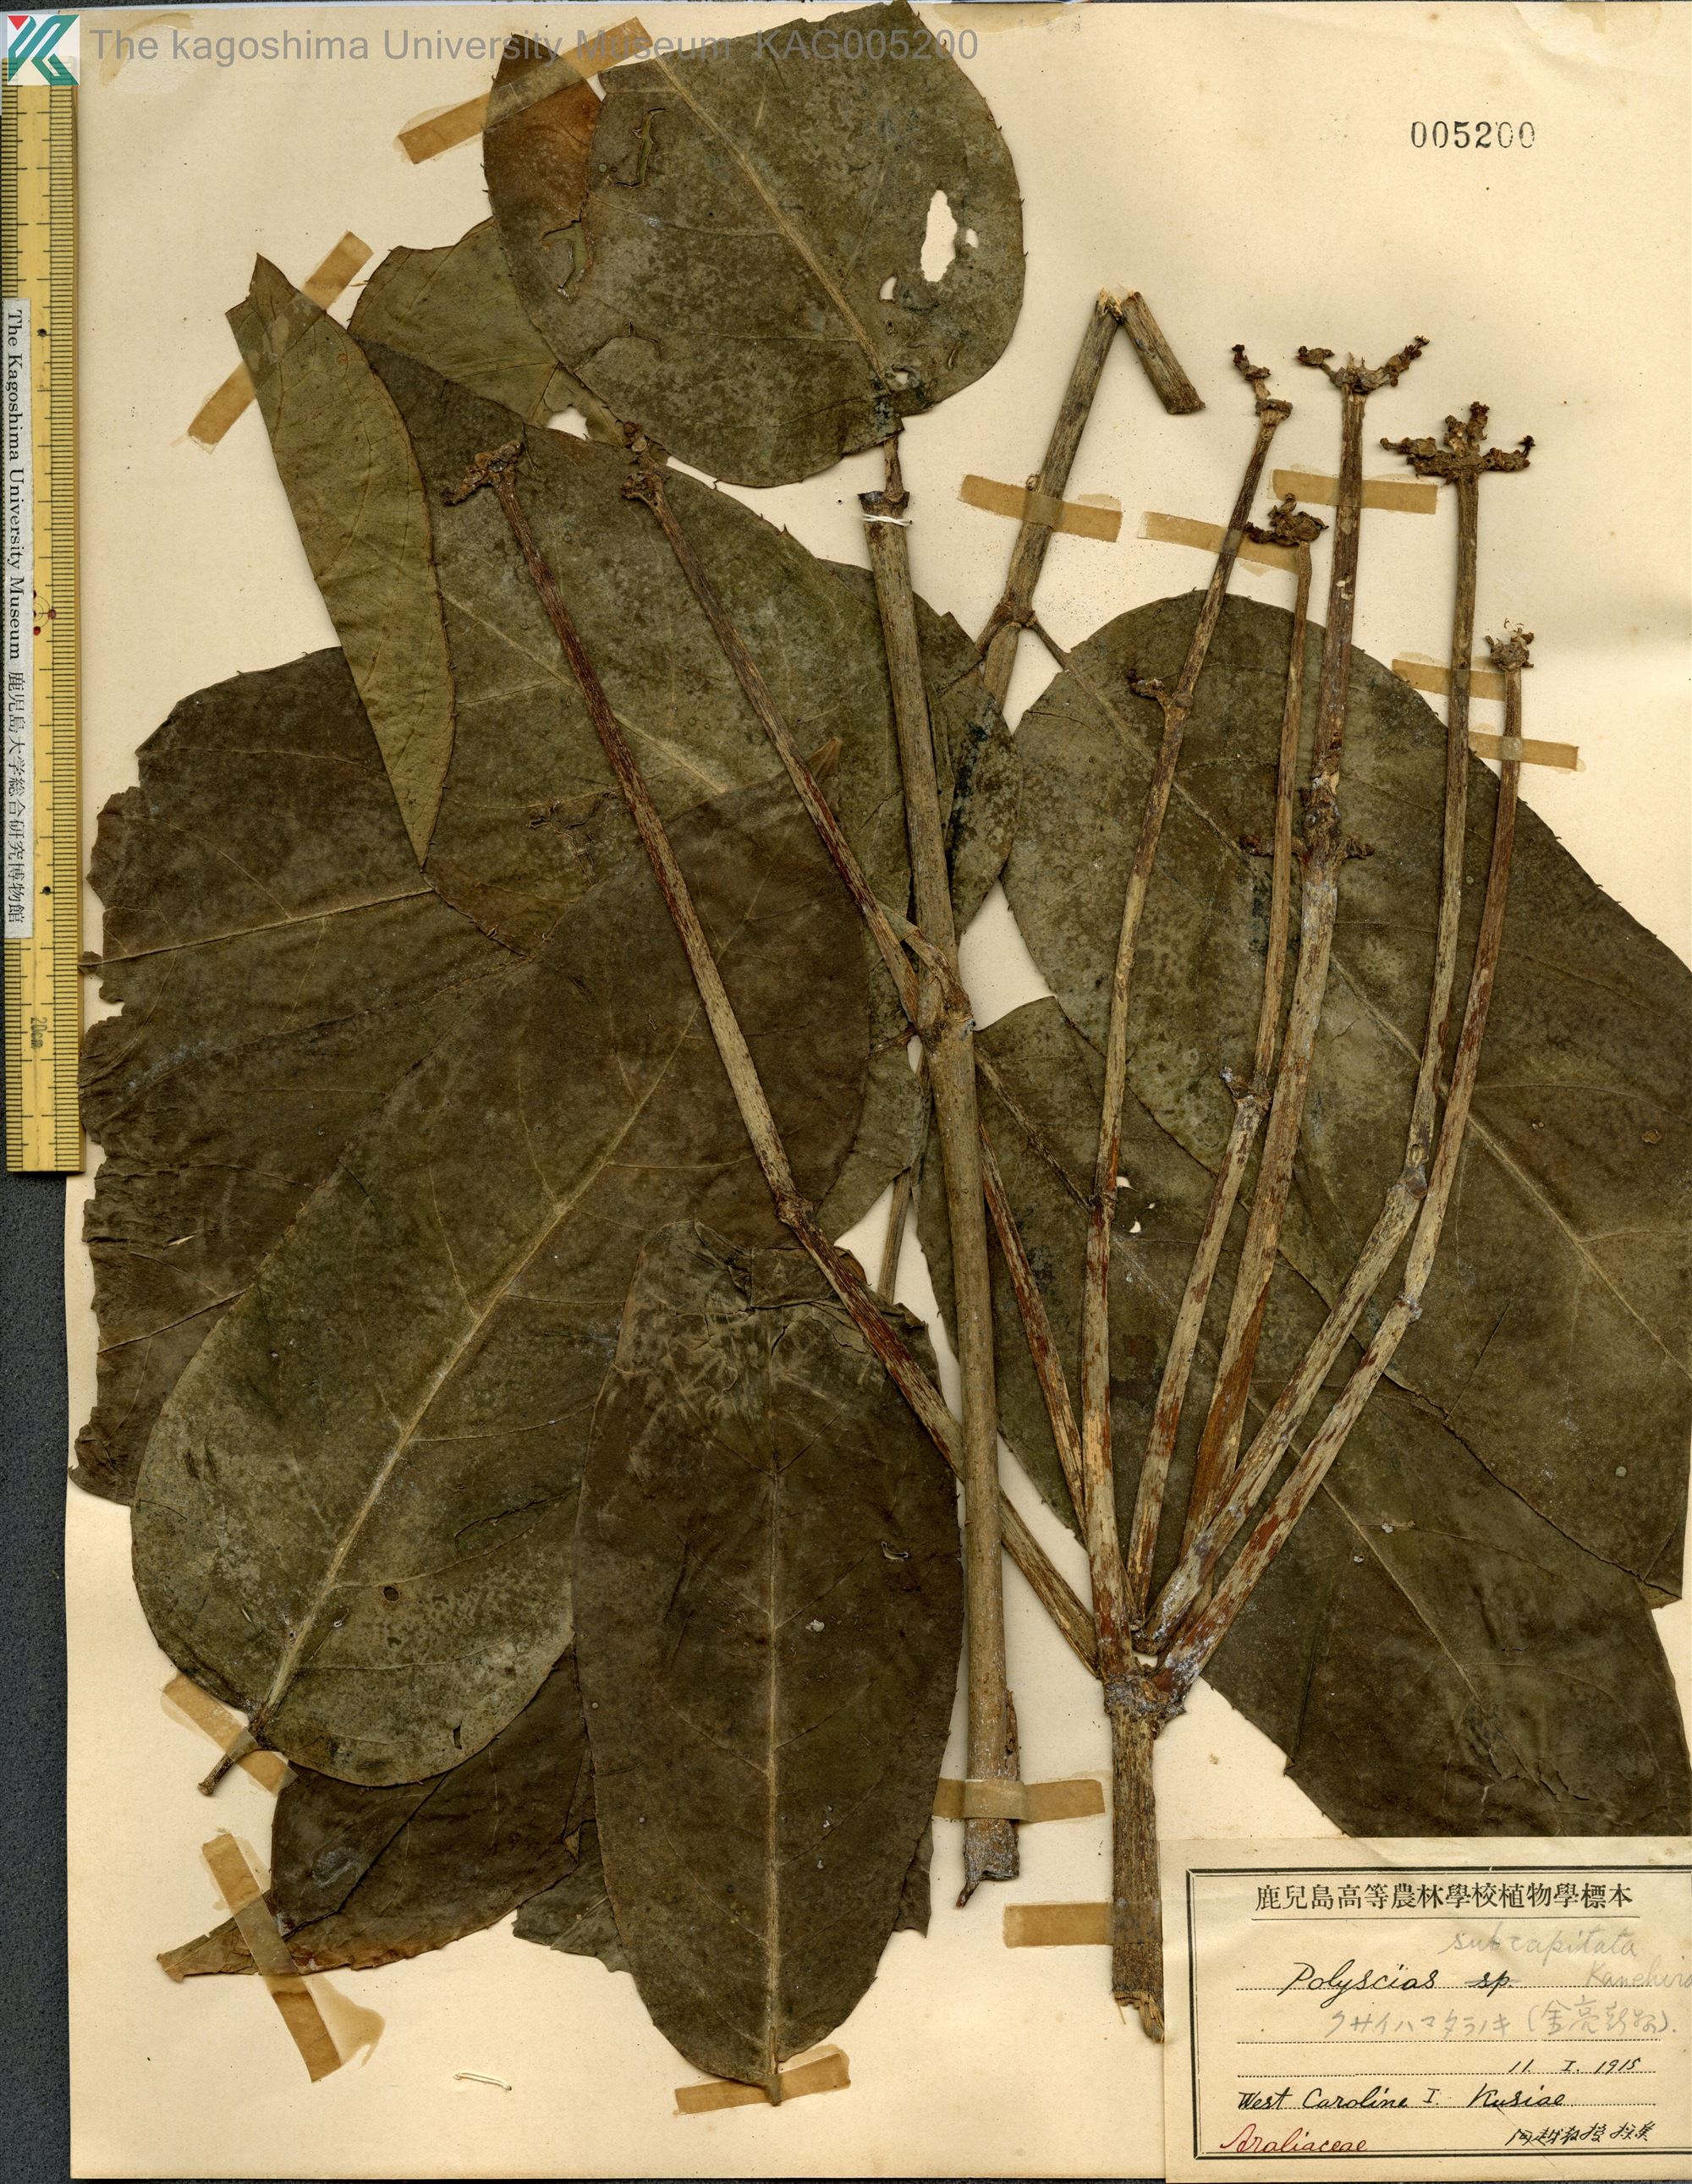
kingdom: Plantae
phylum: Tracheophyta
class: Magnoliopsida
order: Apiales
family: Araliaceae
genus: Polyscias
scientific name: Polyscias subcapitata
